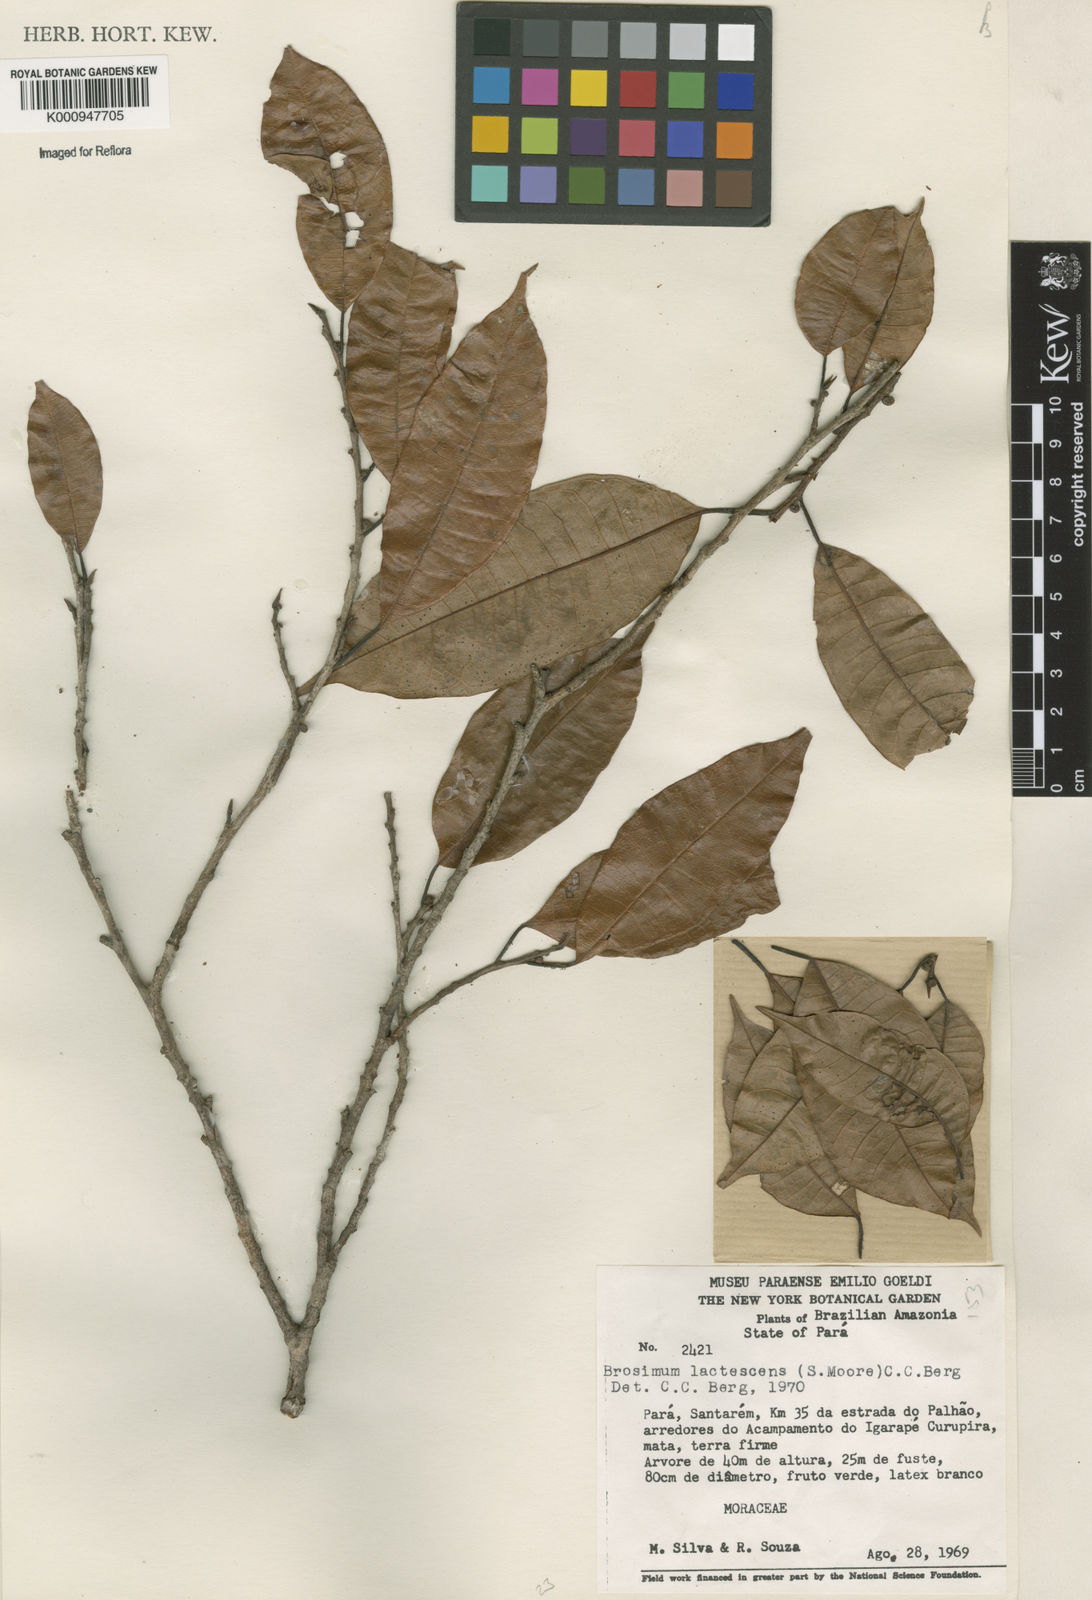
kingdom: Plantae
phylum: Tracheophyta
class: Magnoliopsida
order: Rosales
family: Moraceae
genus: Brosimum
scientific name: Brosimum lactescens
